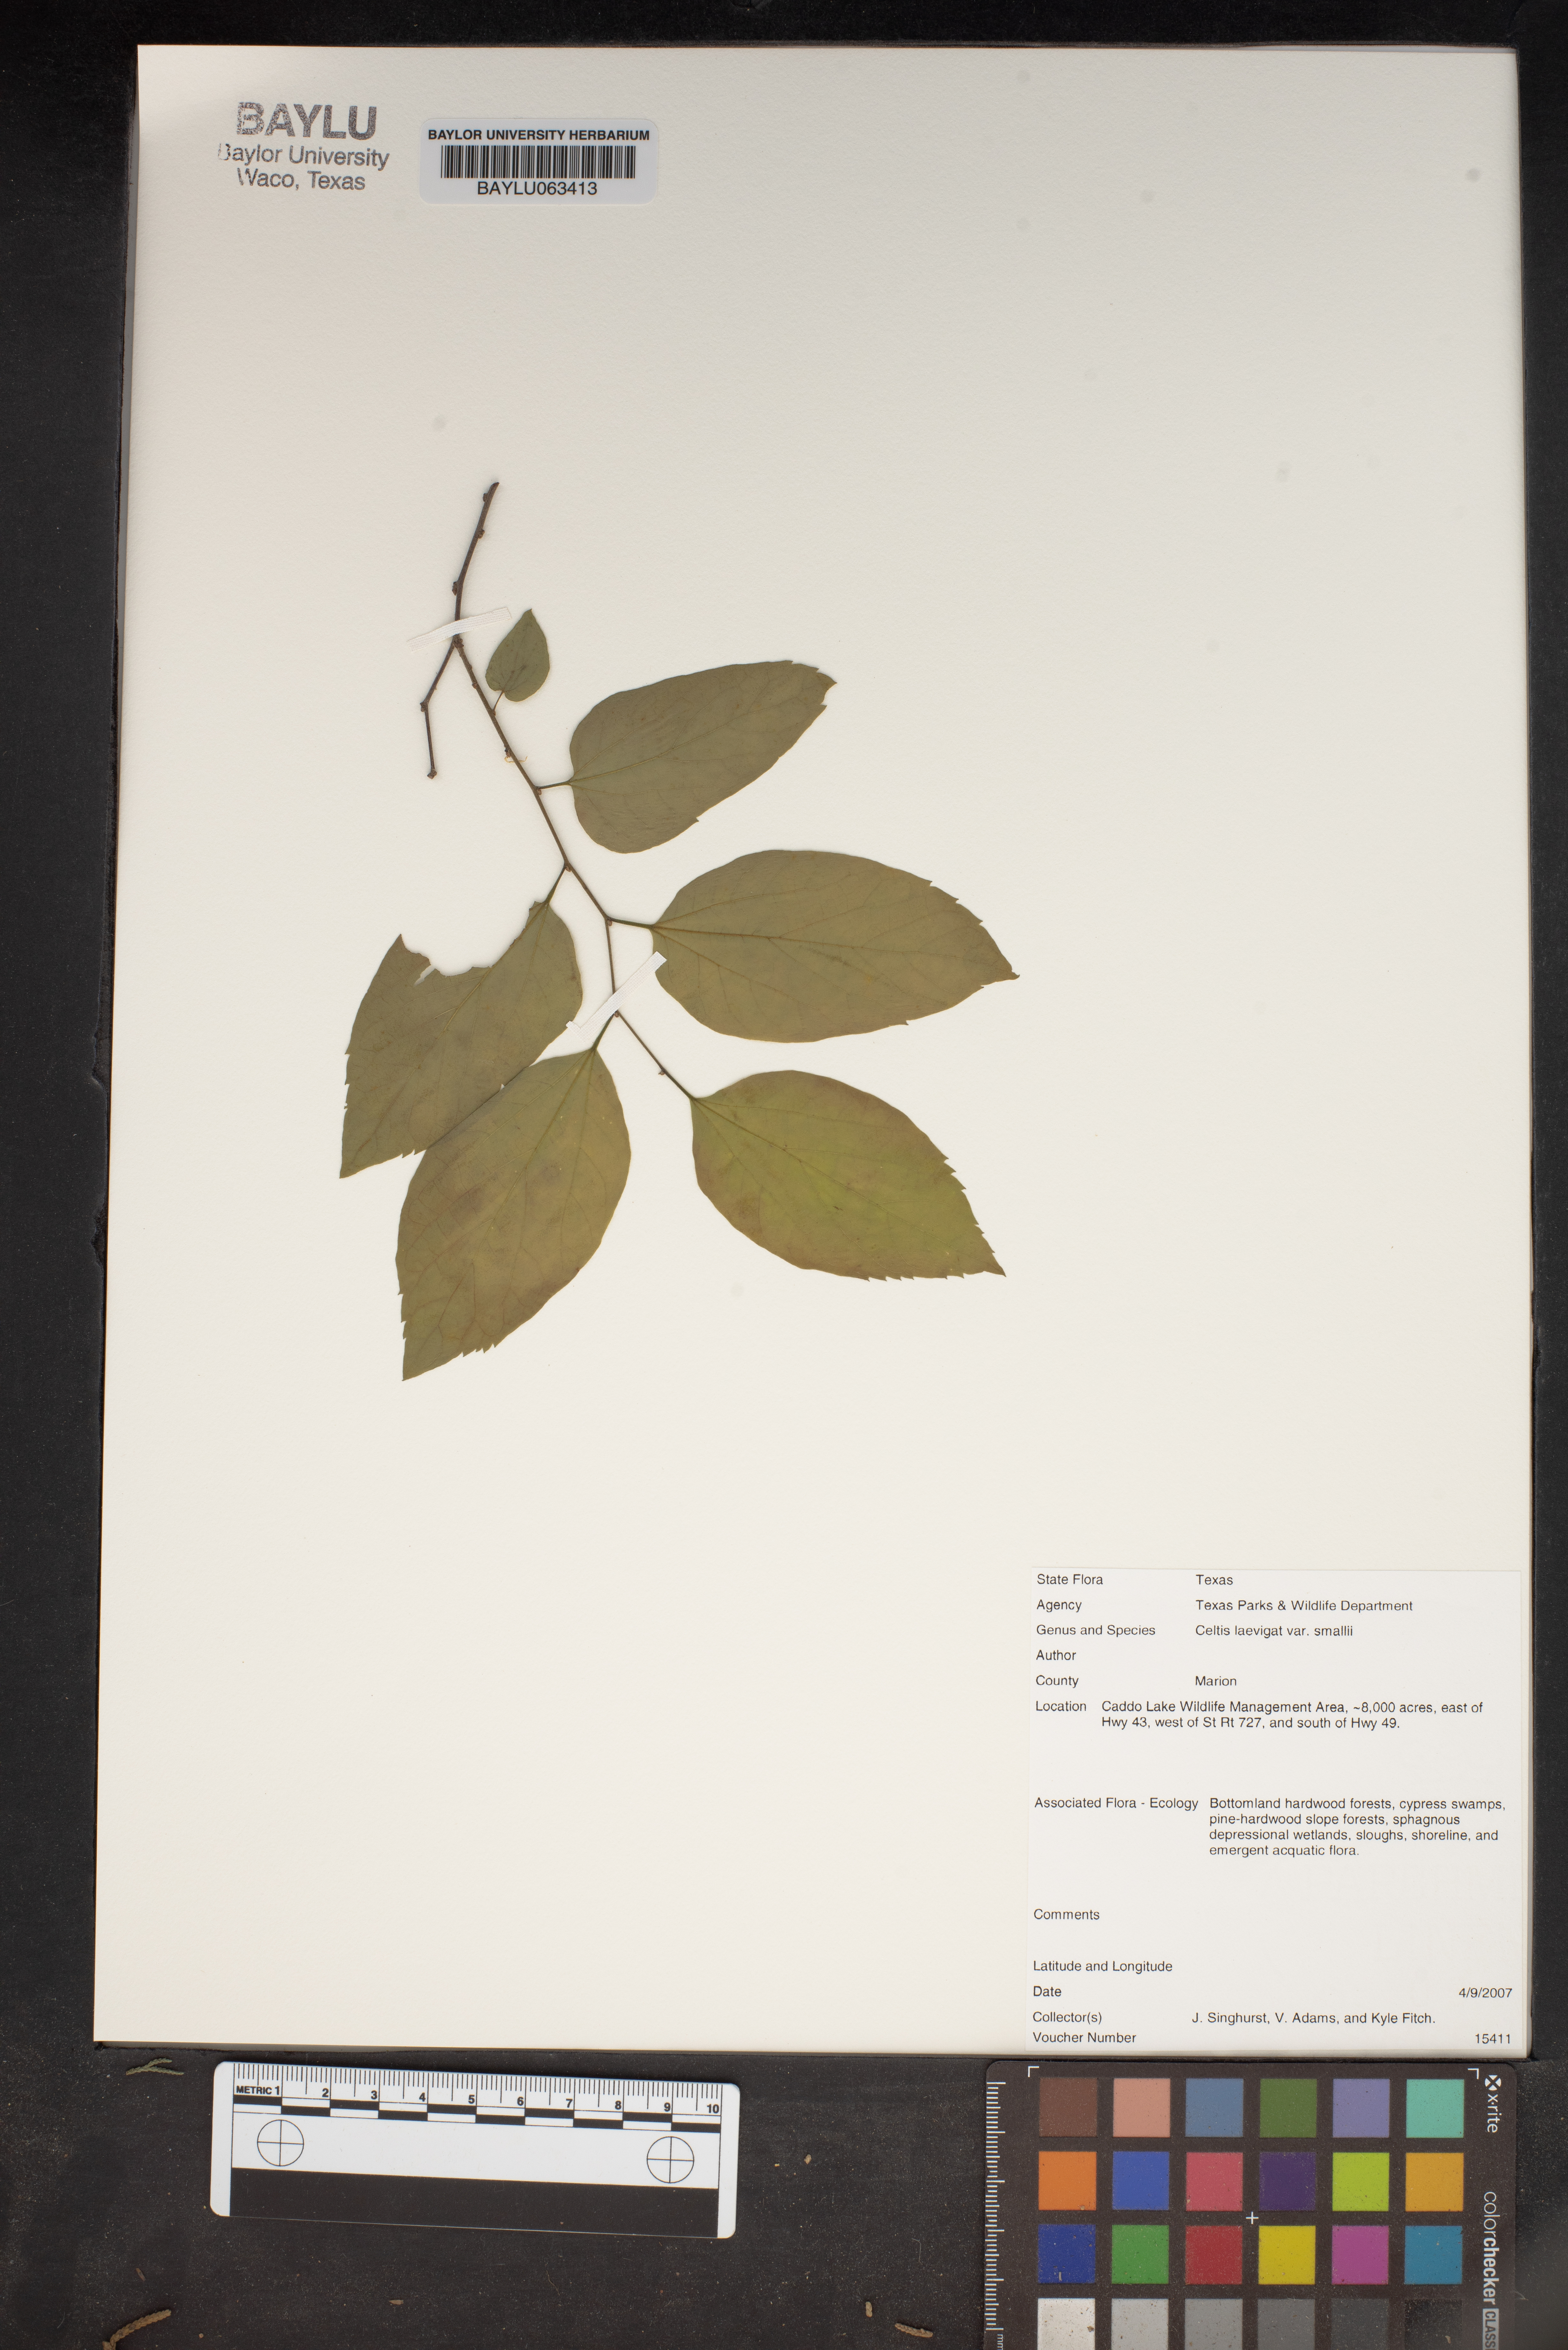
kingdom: Plantae
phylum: Tracheophyta
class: Magnoliopsida
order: Rosales
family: Cannabaceae
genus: Celtis
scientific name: Celtis
